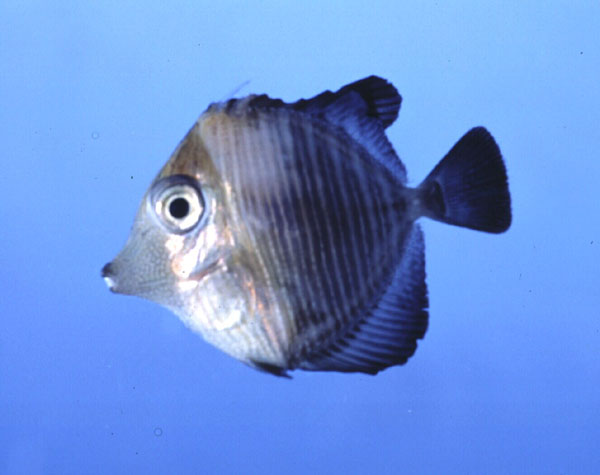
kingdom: Animalia
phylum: Chordata
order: Perciformes
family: Acanthuridae
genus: Zebrasoma
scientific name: Zebrasoma desjardinii
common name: Desjardin's sailfin tang
